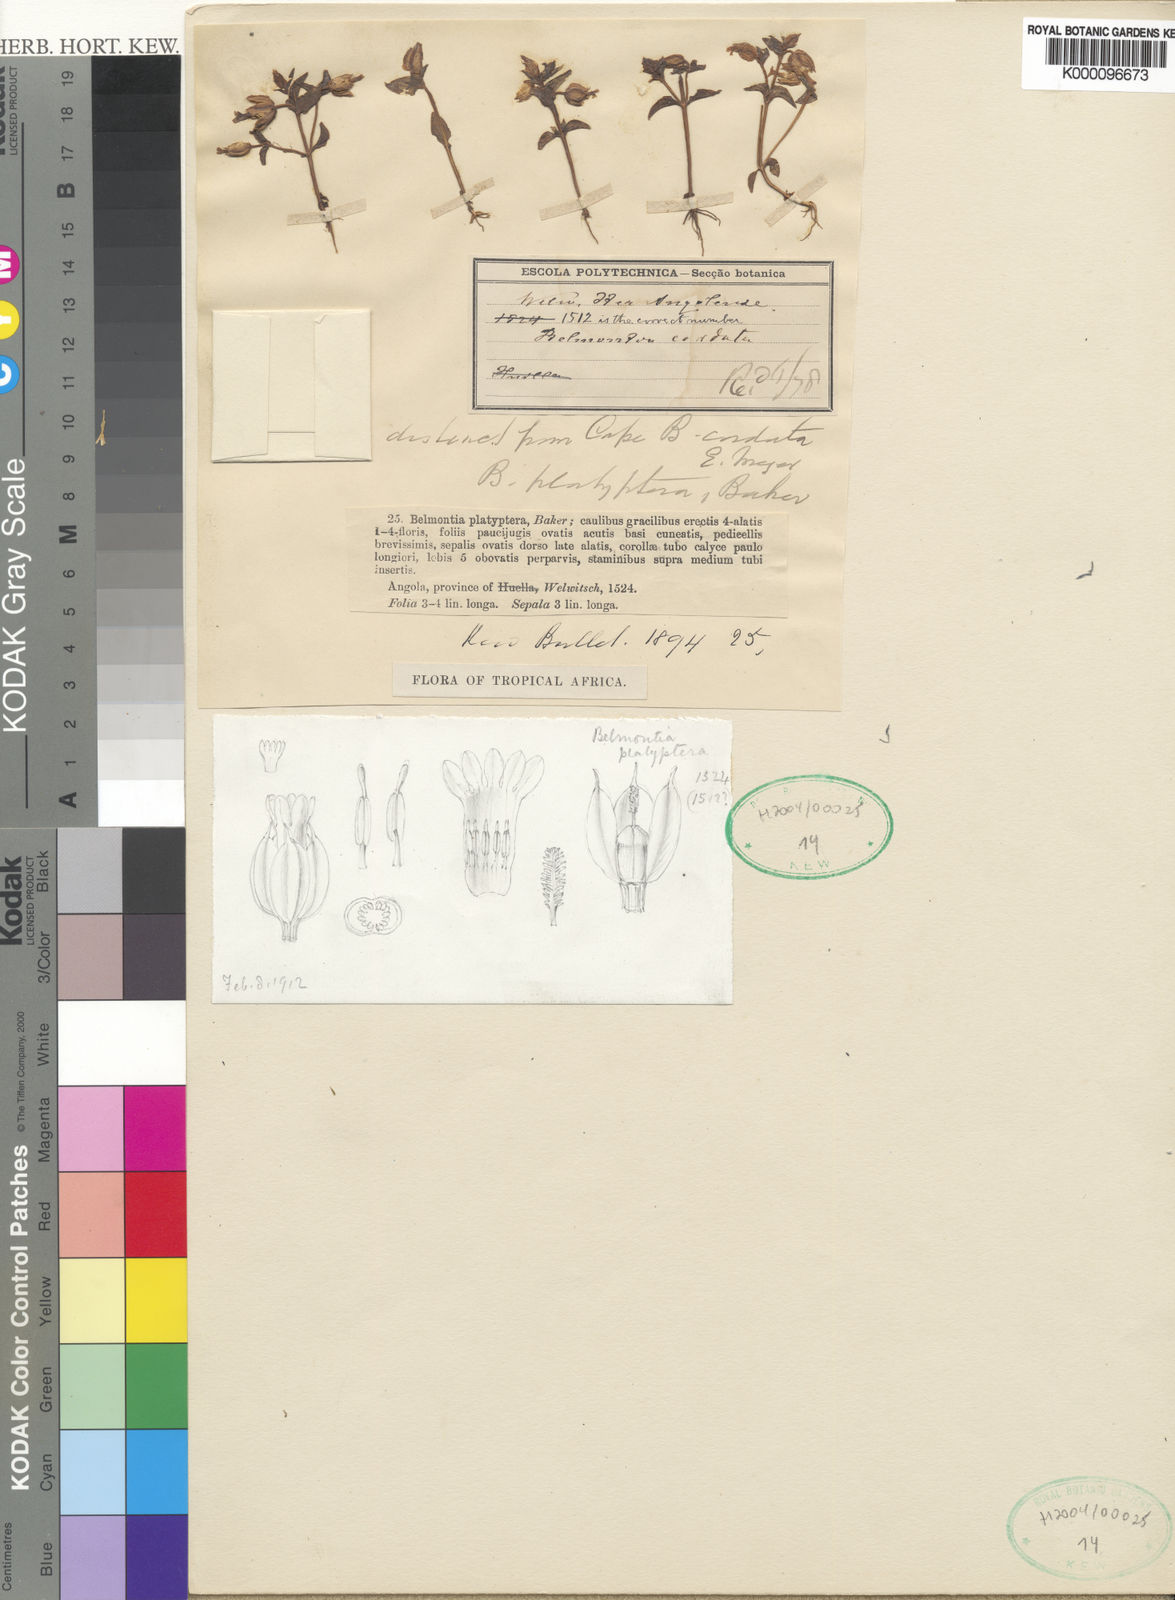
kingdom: Plantae
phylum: Tracheophyta
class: Magnoliopsida
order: Gentianales
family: Gentianaceae
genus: Exochaenium
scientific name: Exochaenium platypterum
